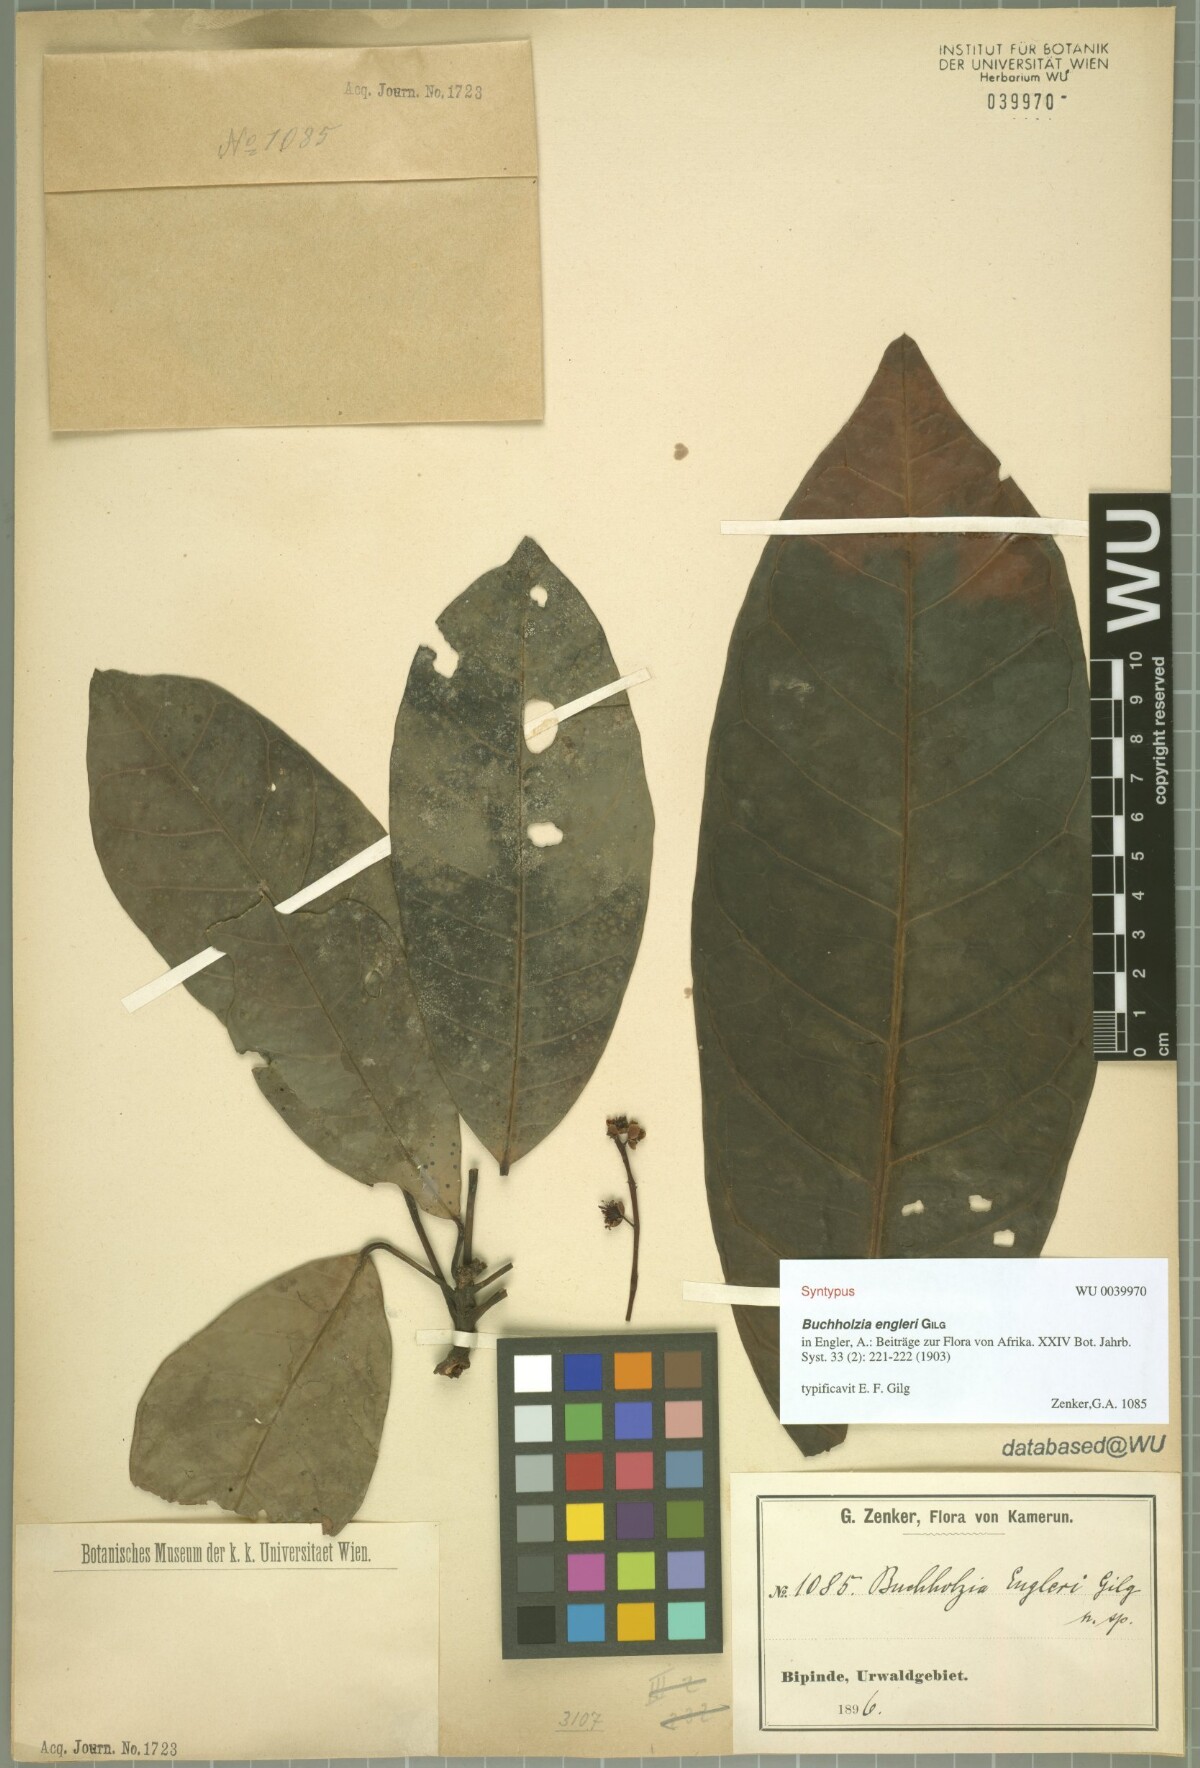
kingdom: Plantae
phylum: Tracheophyta
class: Magnoliopsida
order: Brassicales
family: Capparaceae
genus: Buchholzia
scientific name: Buchholzia coriacea
